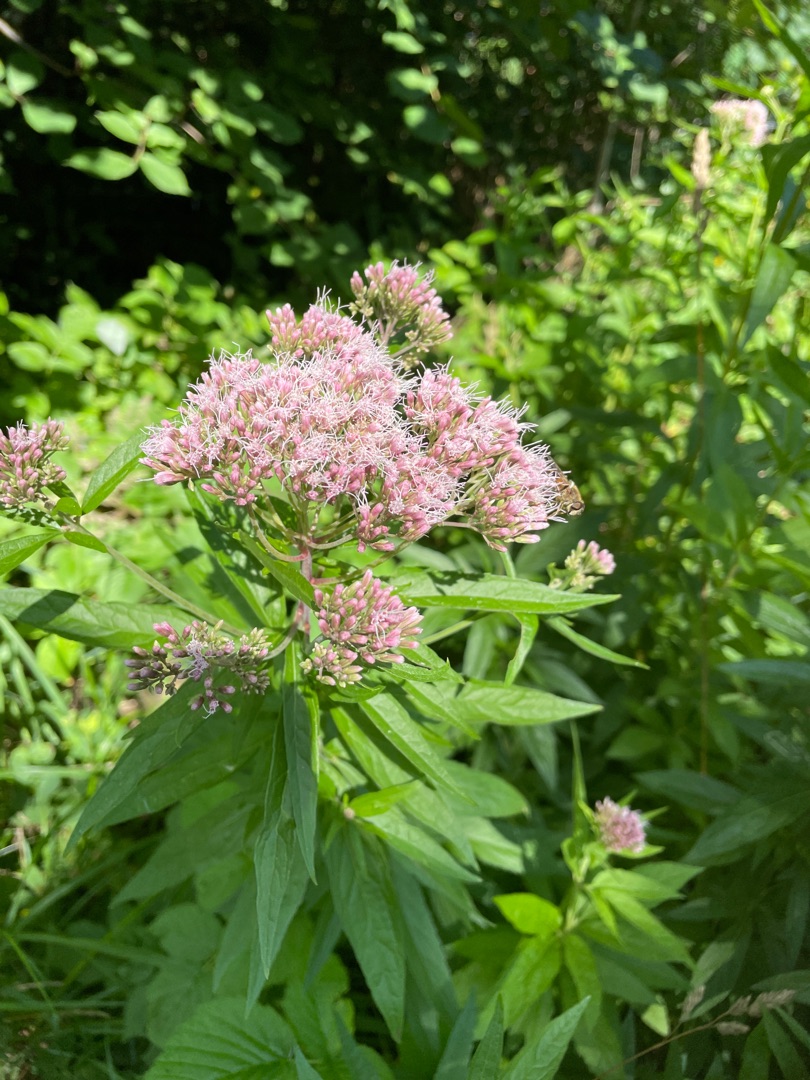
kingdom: Plantae
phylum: Tracheophyta
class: Magnoliopsida
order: Asterales
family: Asteraceae
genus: Eupatorium
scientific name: Eupatorium cannabinum
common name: Hjortetrøst
